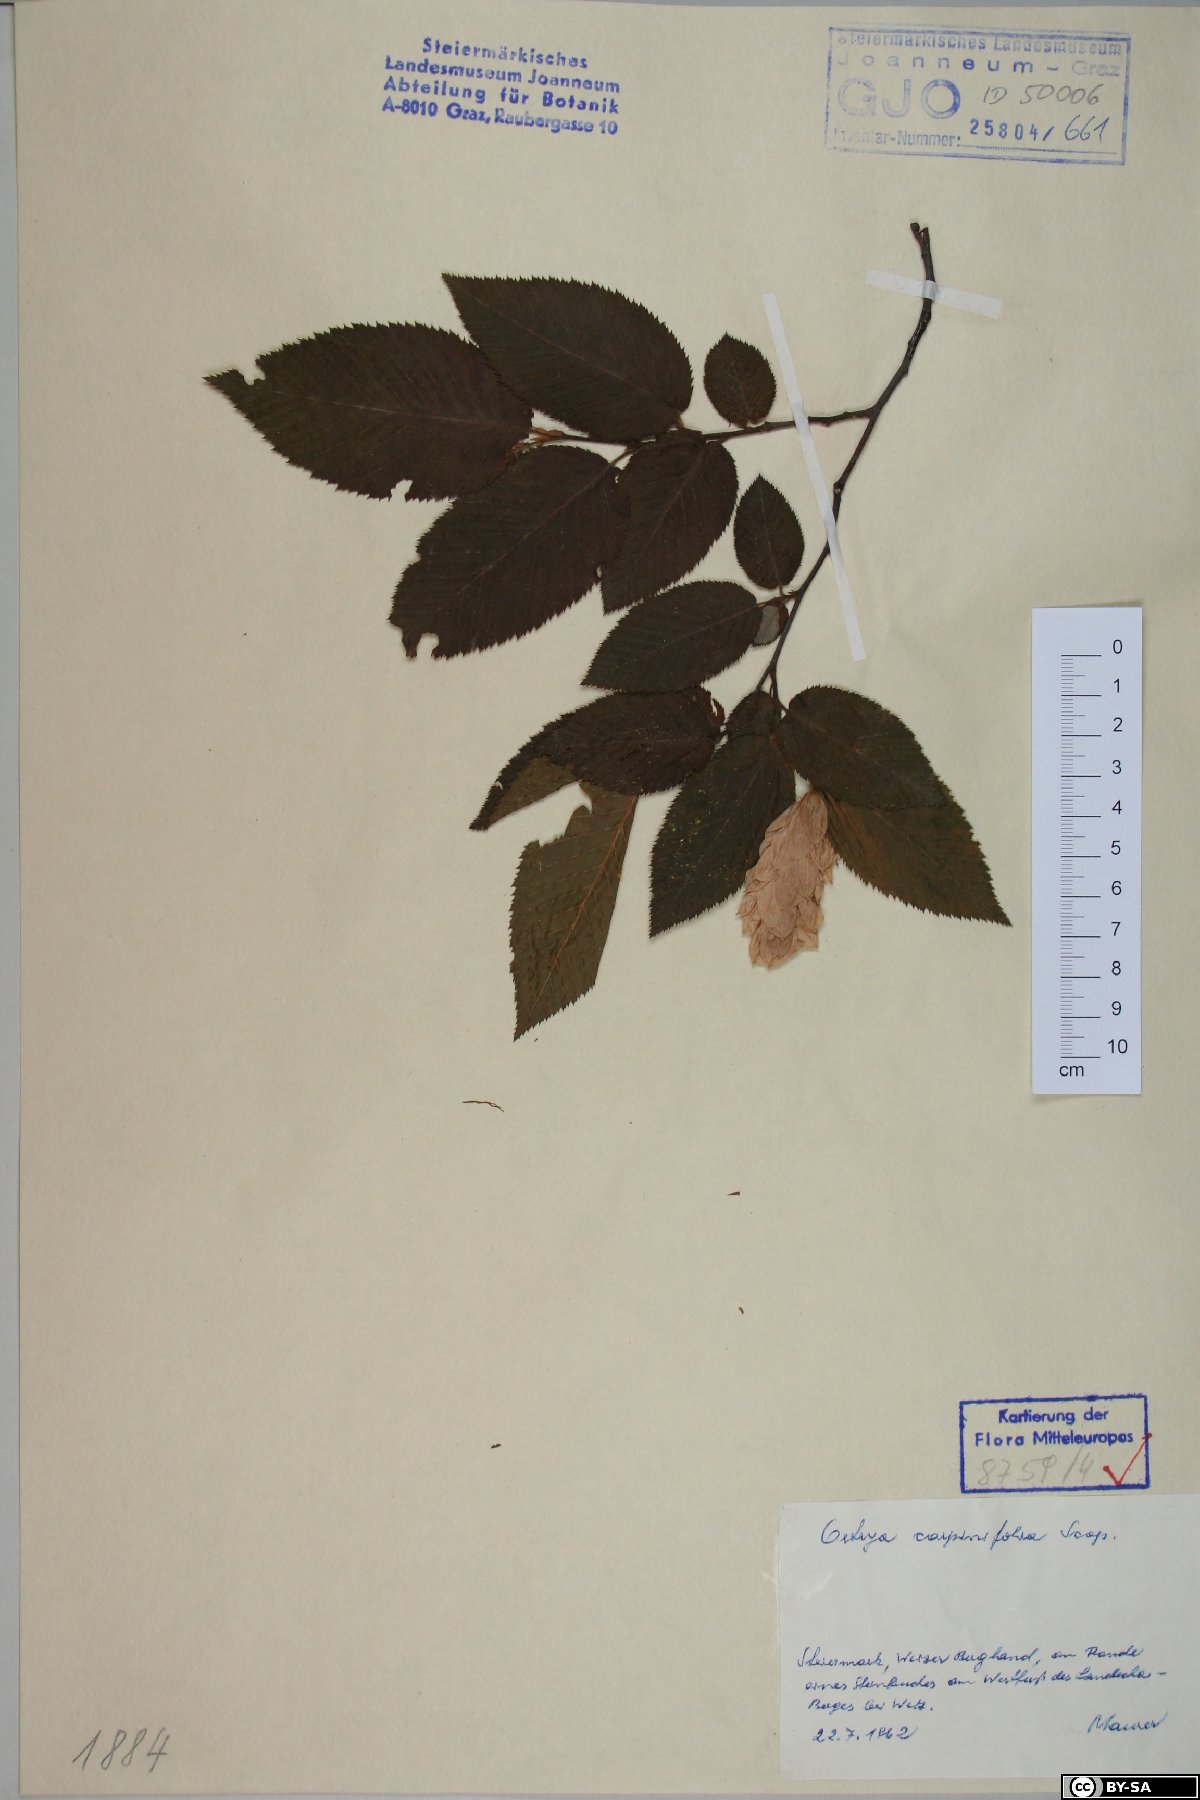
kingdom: Plantae
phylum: Tracheophyta
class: Magnoliopsida
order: Fagales
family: Betulaceae
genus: Ostrya
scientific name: Ostrya carpinifolia
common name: European hop-hornbeam
